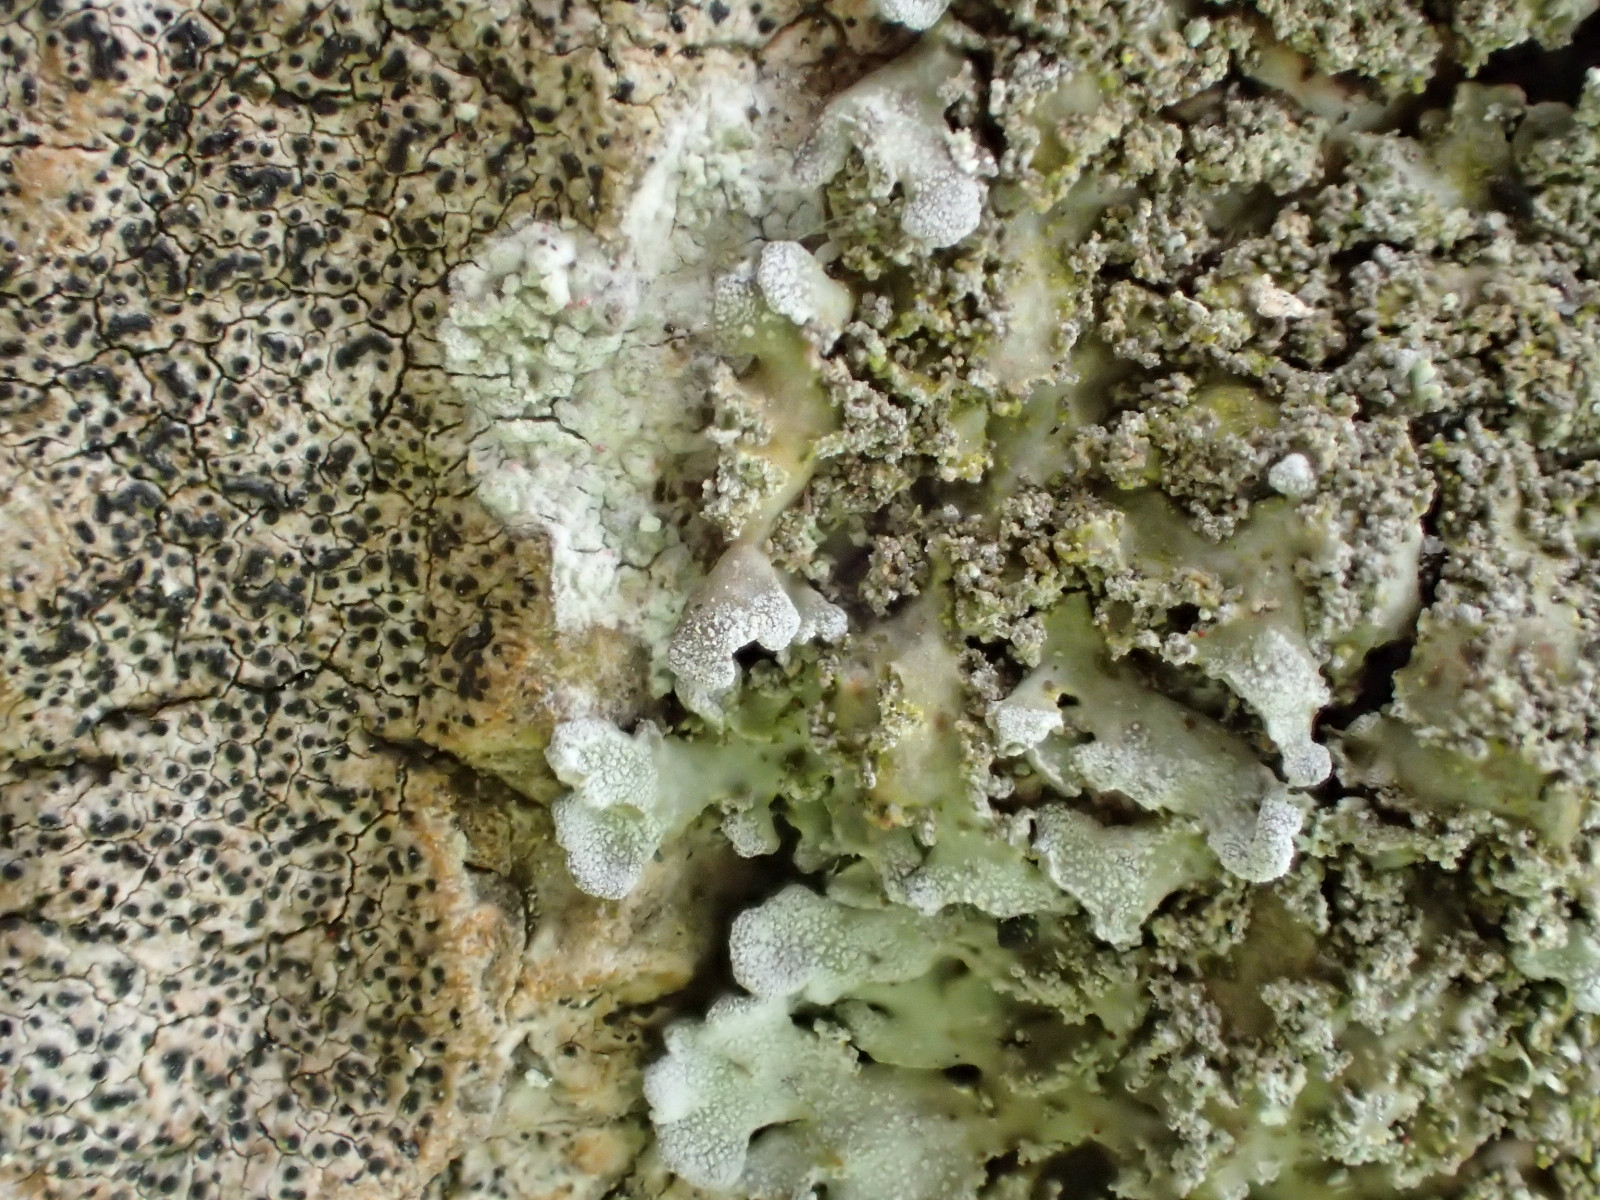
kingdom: Fungi
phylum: Ascomycota
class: Lecanoromycetes
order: Caliciales
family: Physciaceae
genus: Physconia
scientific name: Physconia perisidiosa
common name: liden dugrosetlav
